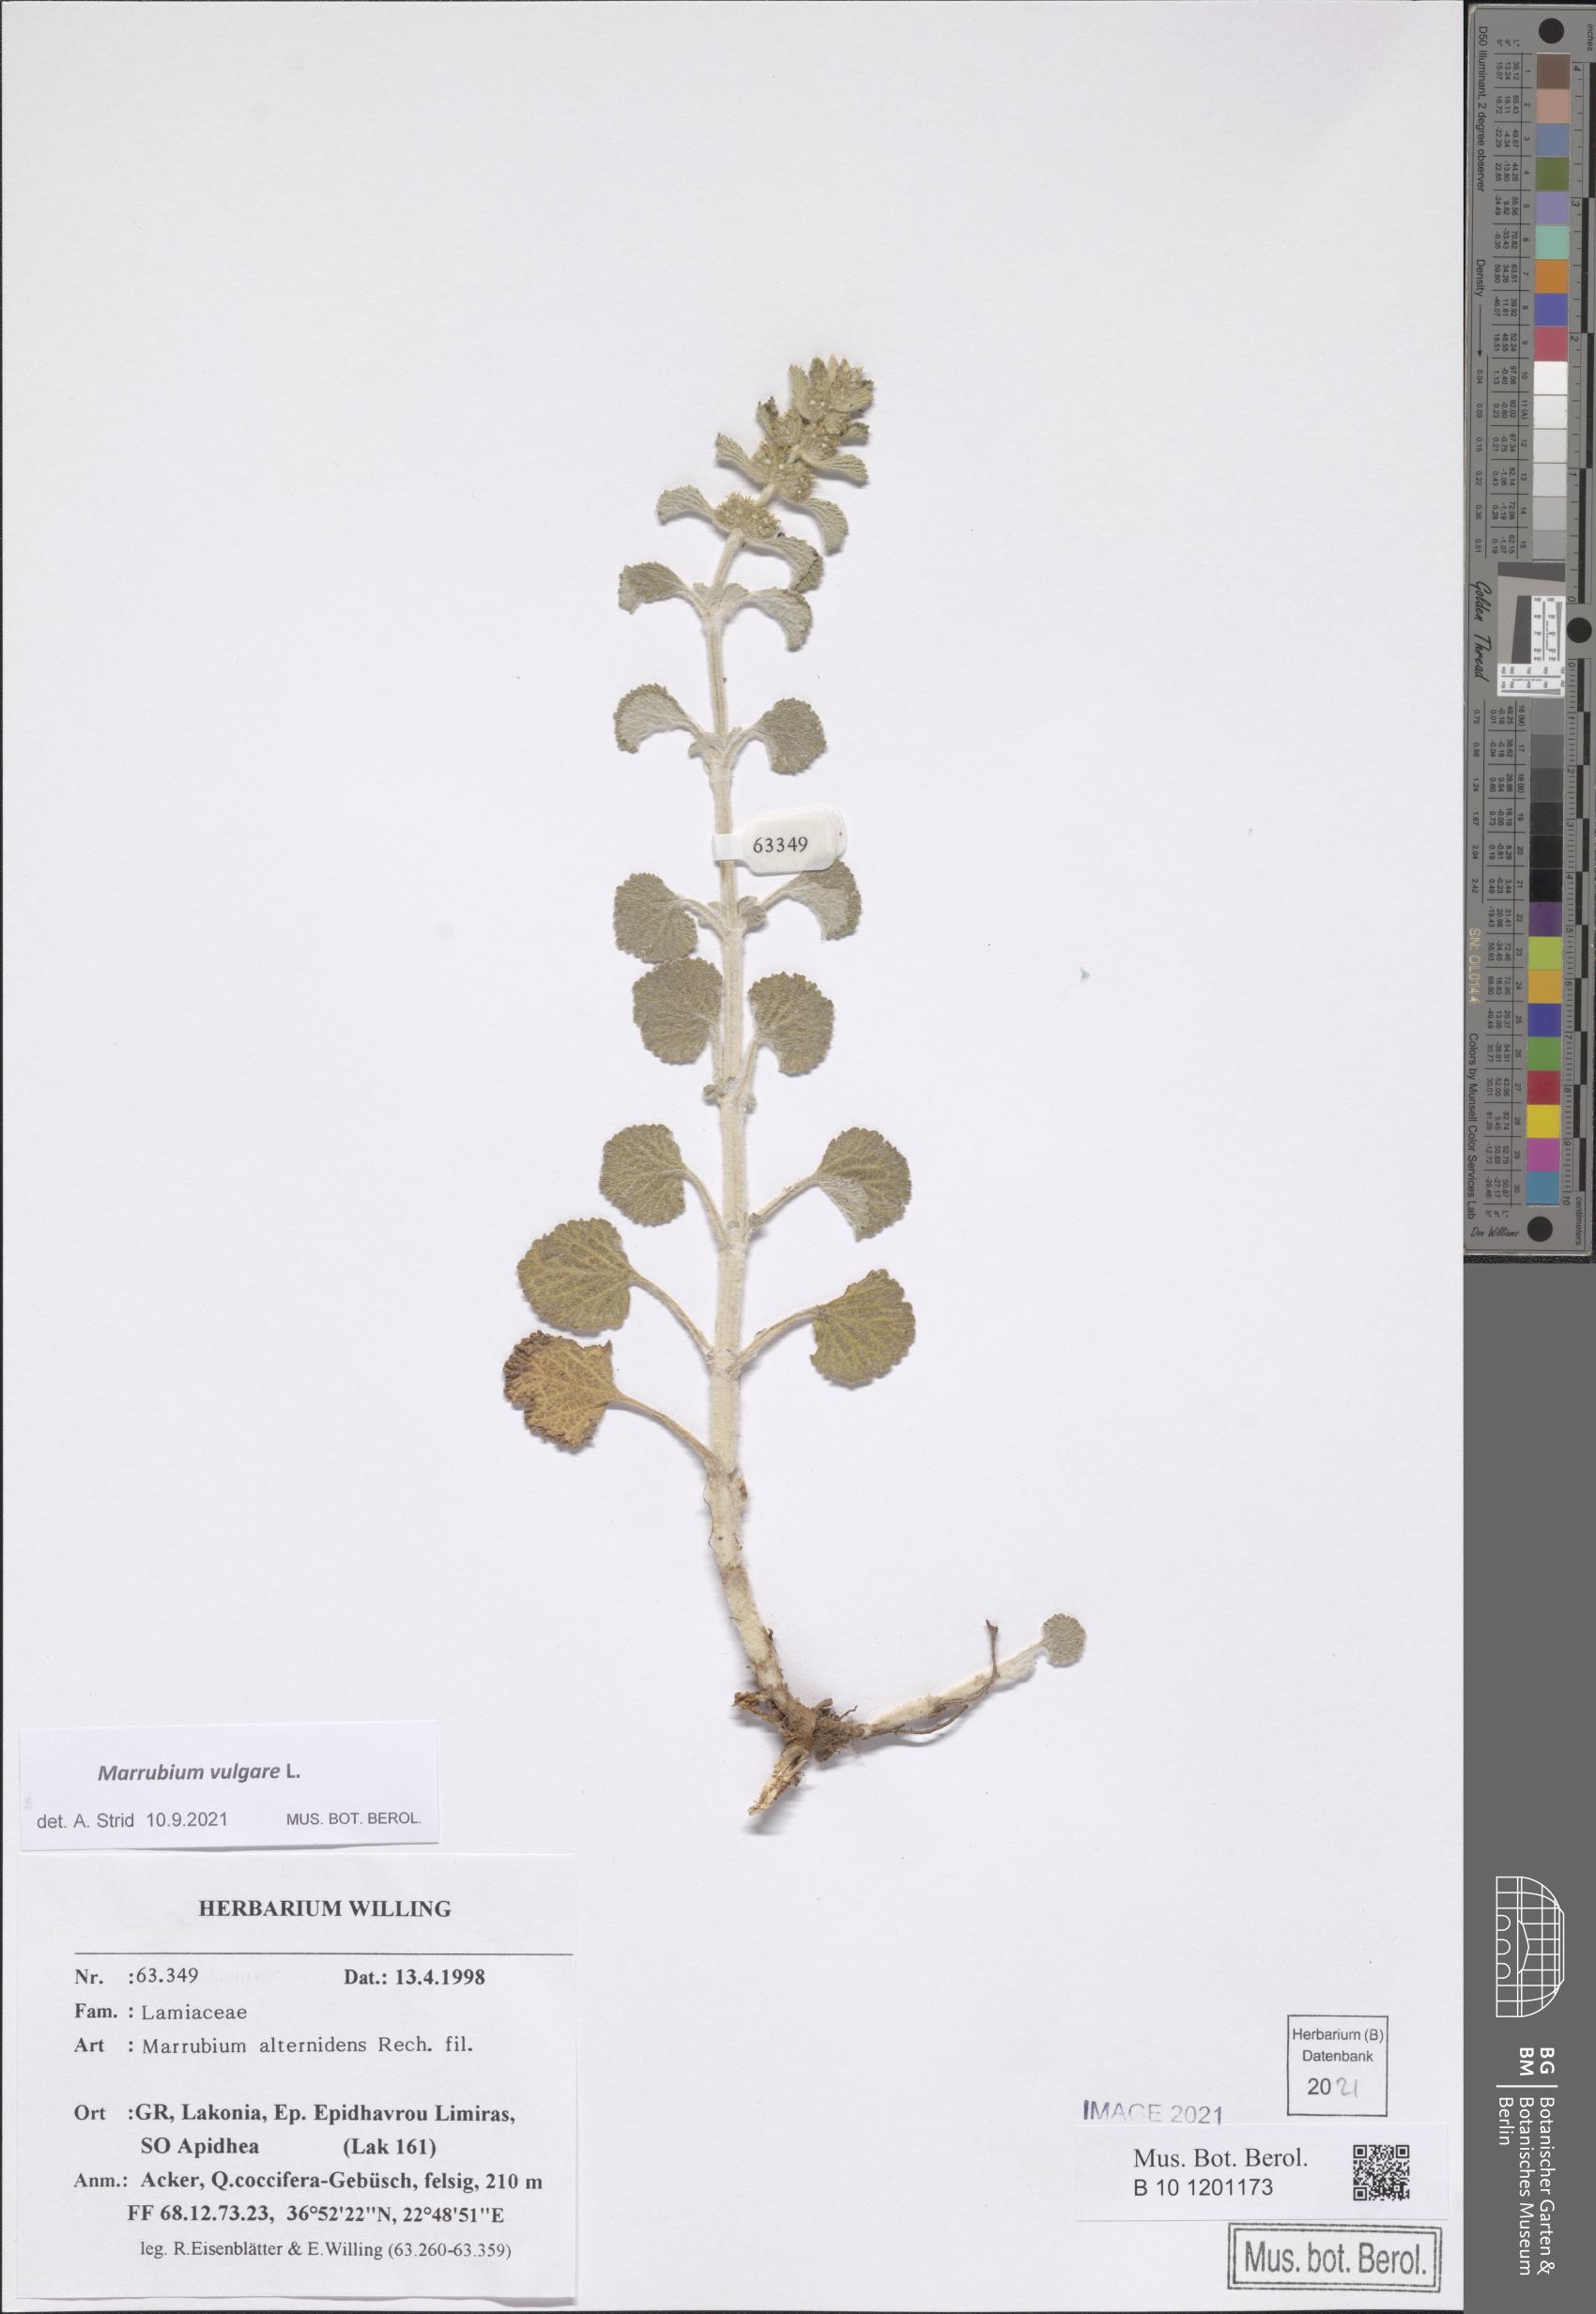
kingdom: Plantae
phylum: Tracheophyta
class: Magnoliopsida
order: Lamiales
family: Lamiaceae
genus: Marrubium
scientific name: Marrubium vulgare
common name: Horehound
